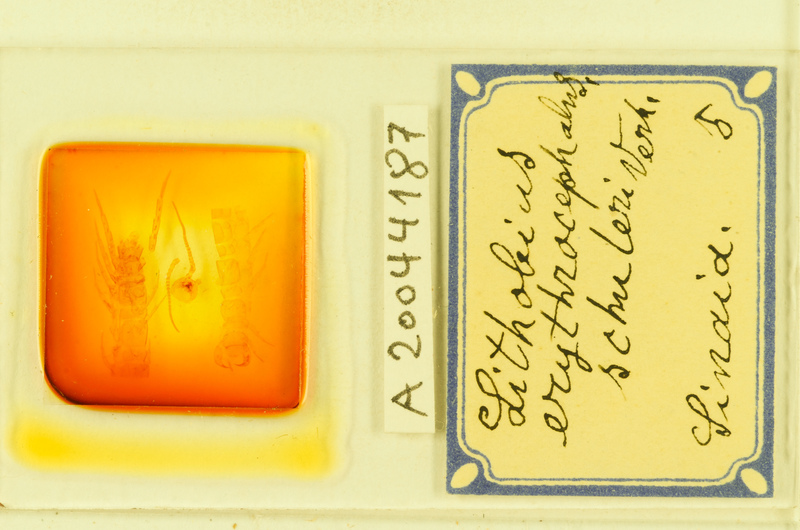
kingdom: Animalia
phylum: Arthropoda
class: Chilopoda
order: Lithobiomorpha
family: Lithobiidae
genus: Lithobius
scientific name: Lithobius erythrocephalus
